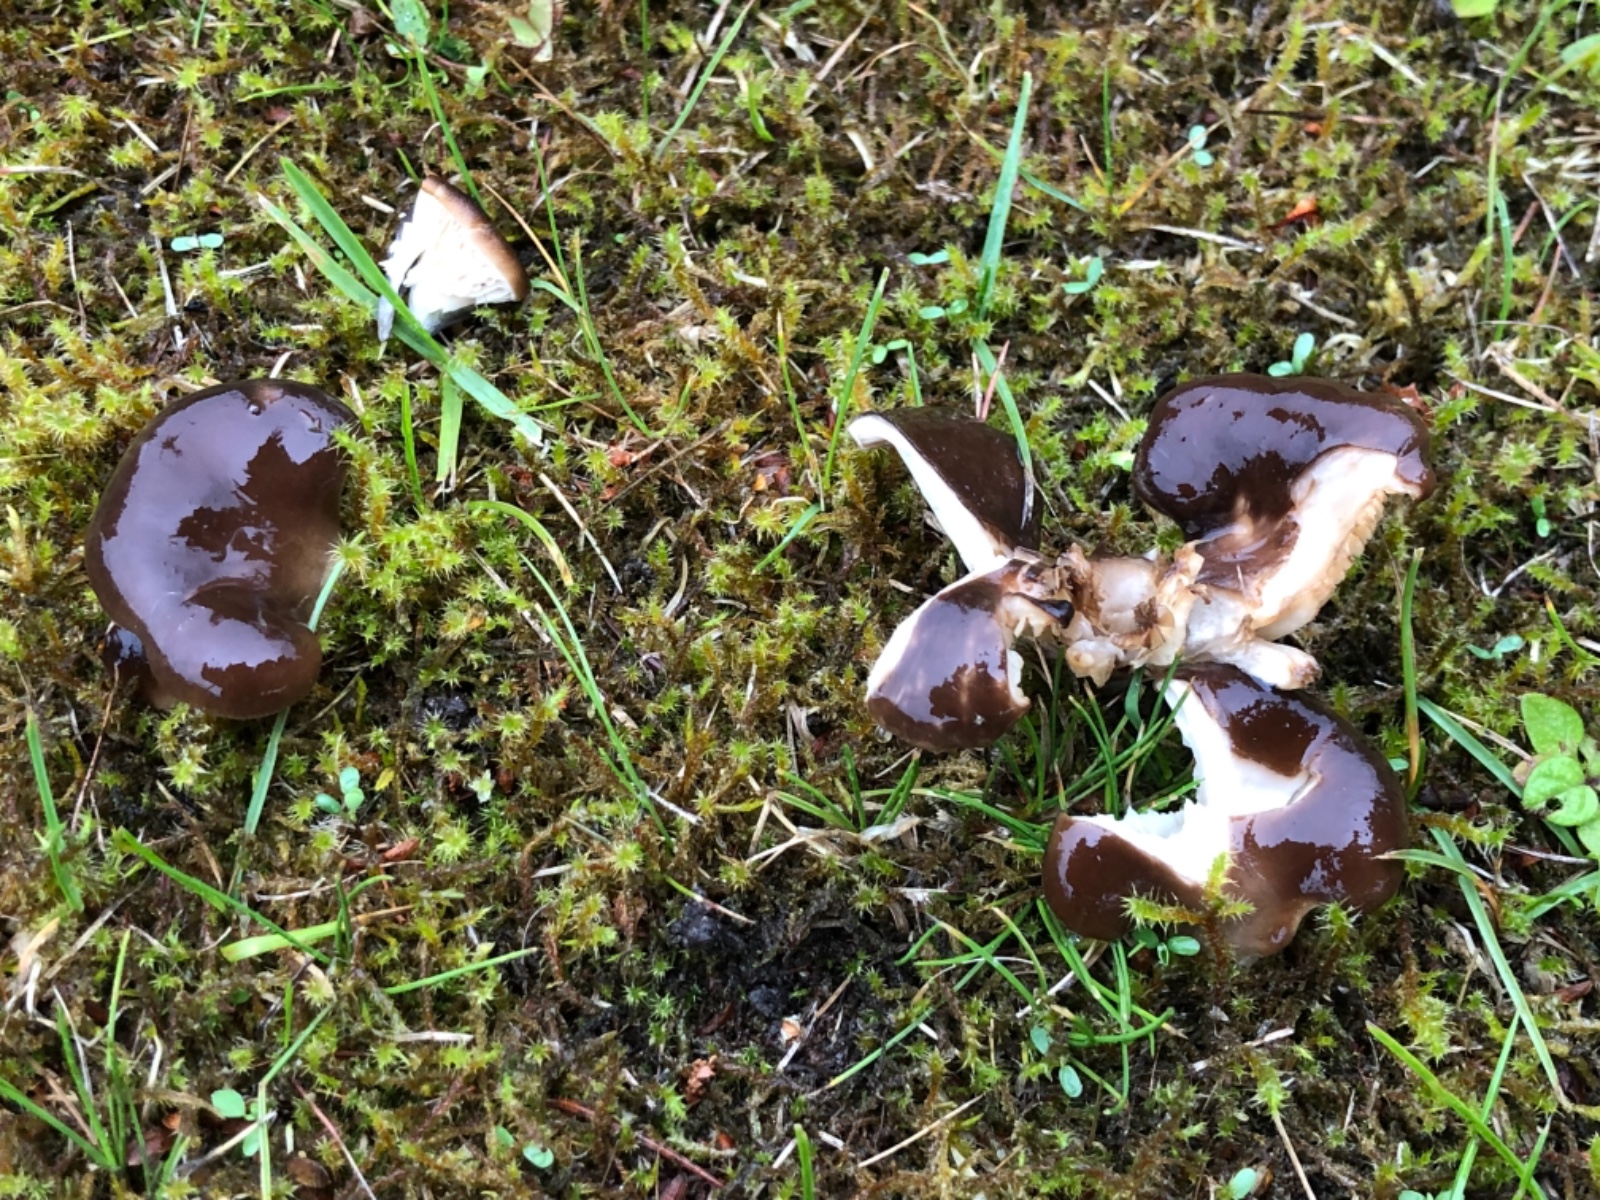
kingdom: Fungi
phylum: Basidiomycota
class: Agaricomycetes
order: Agaricales
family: Pleurotaceae
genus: Hohenbuehelia
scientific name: Hohenbuehelia tremula
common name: førne-filthat
